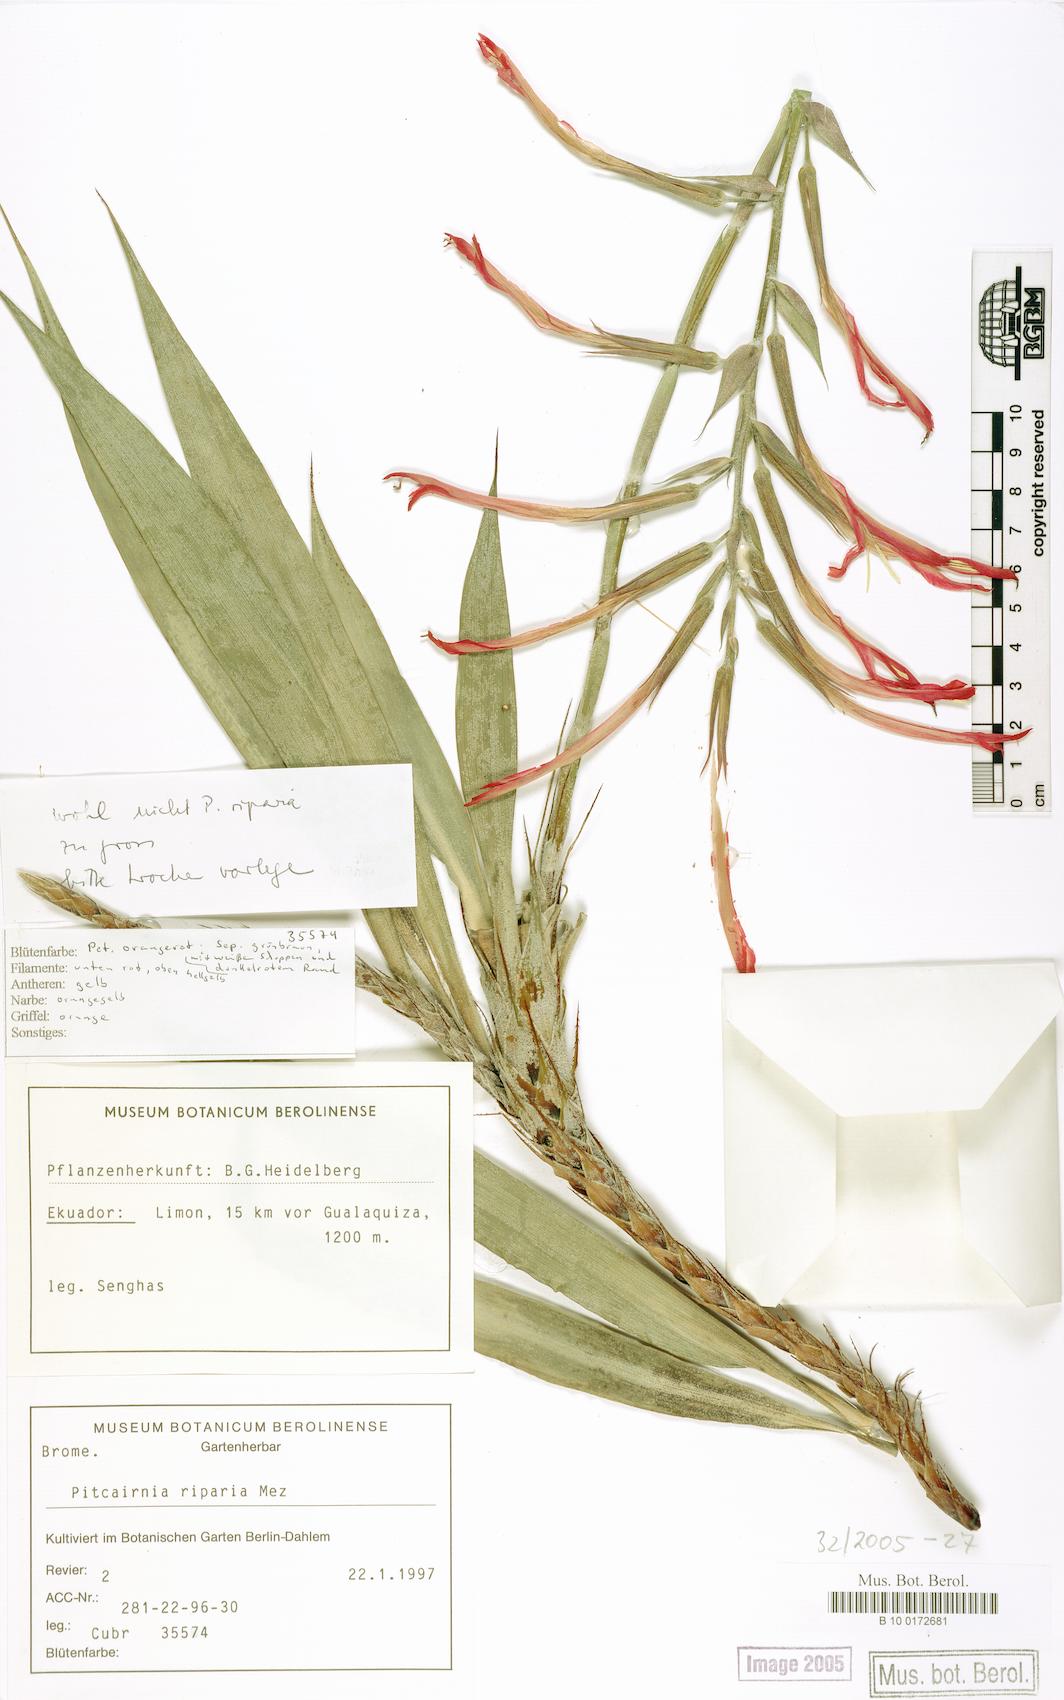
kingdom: Plantae
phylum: Tracheophyta
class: Liliopsida
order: Poales
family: Bromeliaceae
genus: Pitcairnia
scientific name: Pitcairnia riparia
